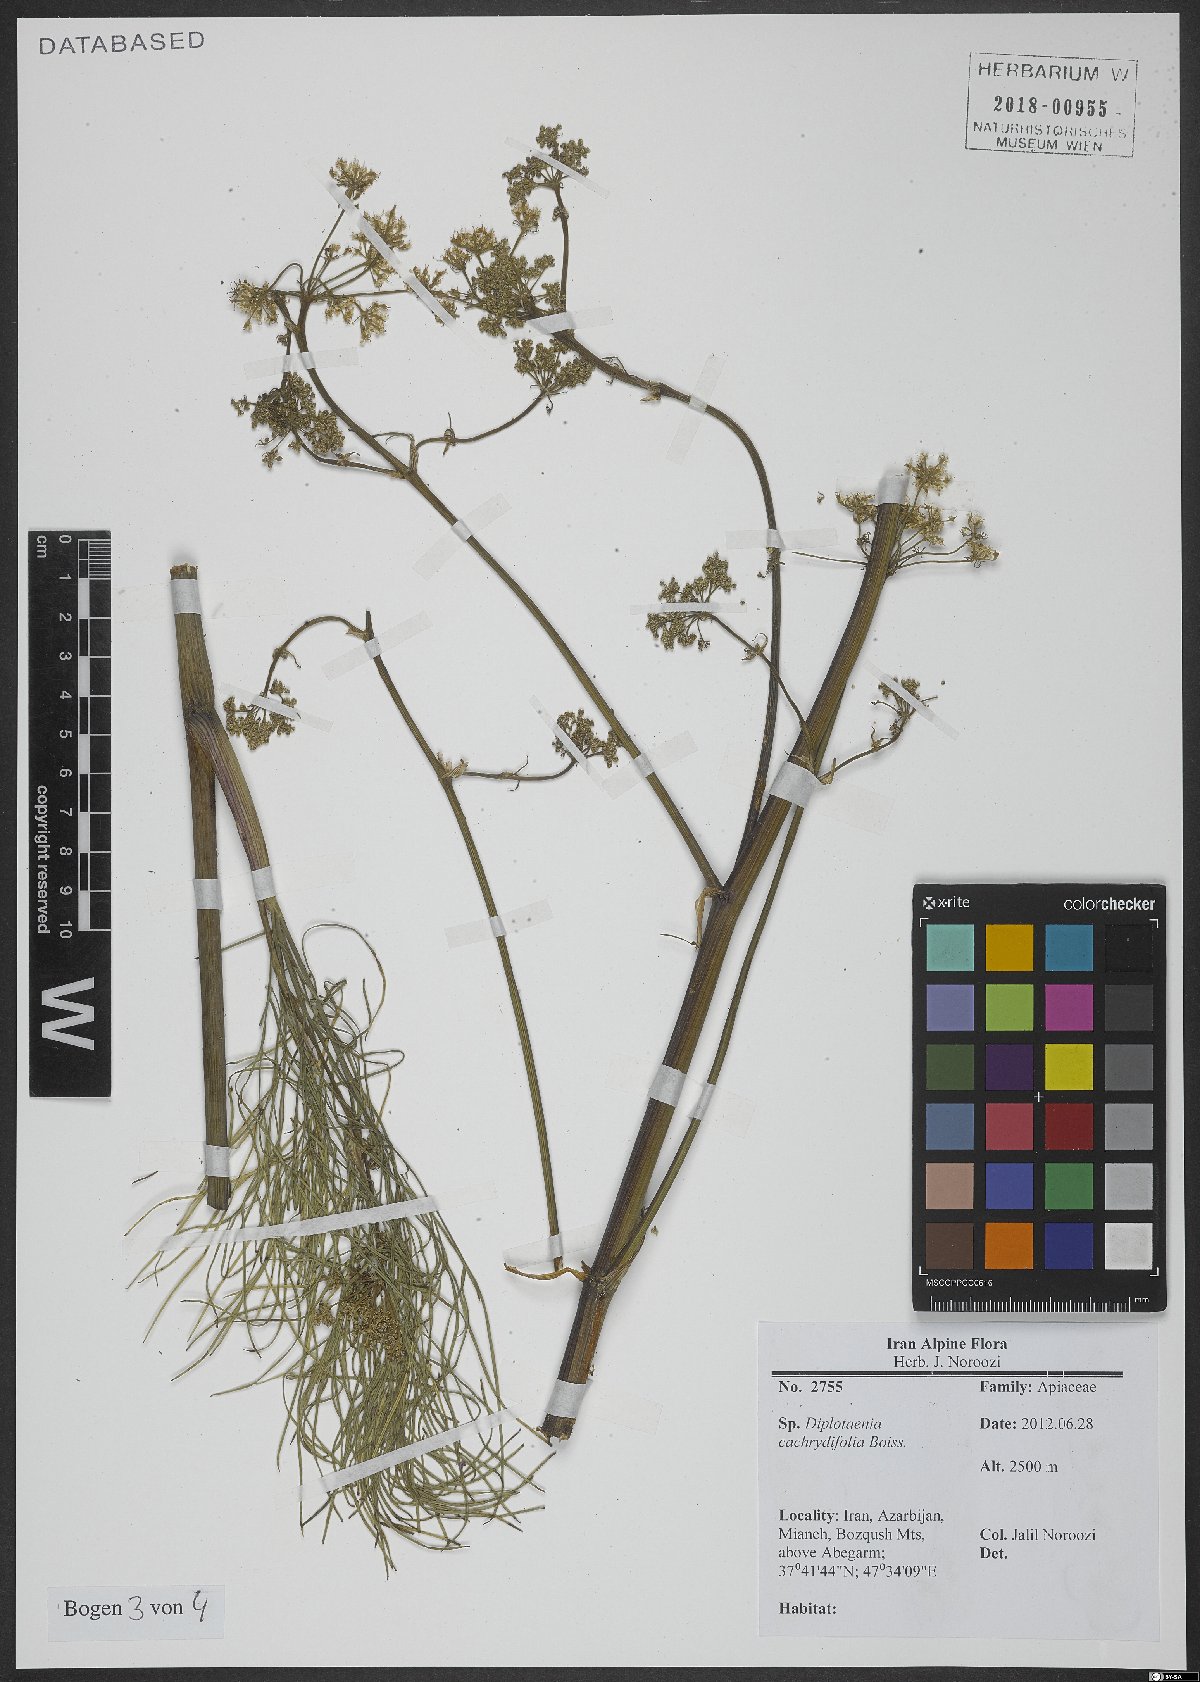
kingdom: Plantae
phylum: Tracheophyta
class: Magnoliopsida
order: Apiales
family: Apiaceae
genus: Diplotaenia
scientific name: Diplotaenia cachrydifolia
